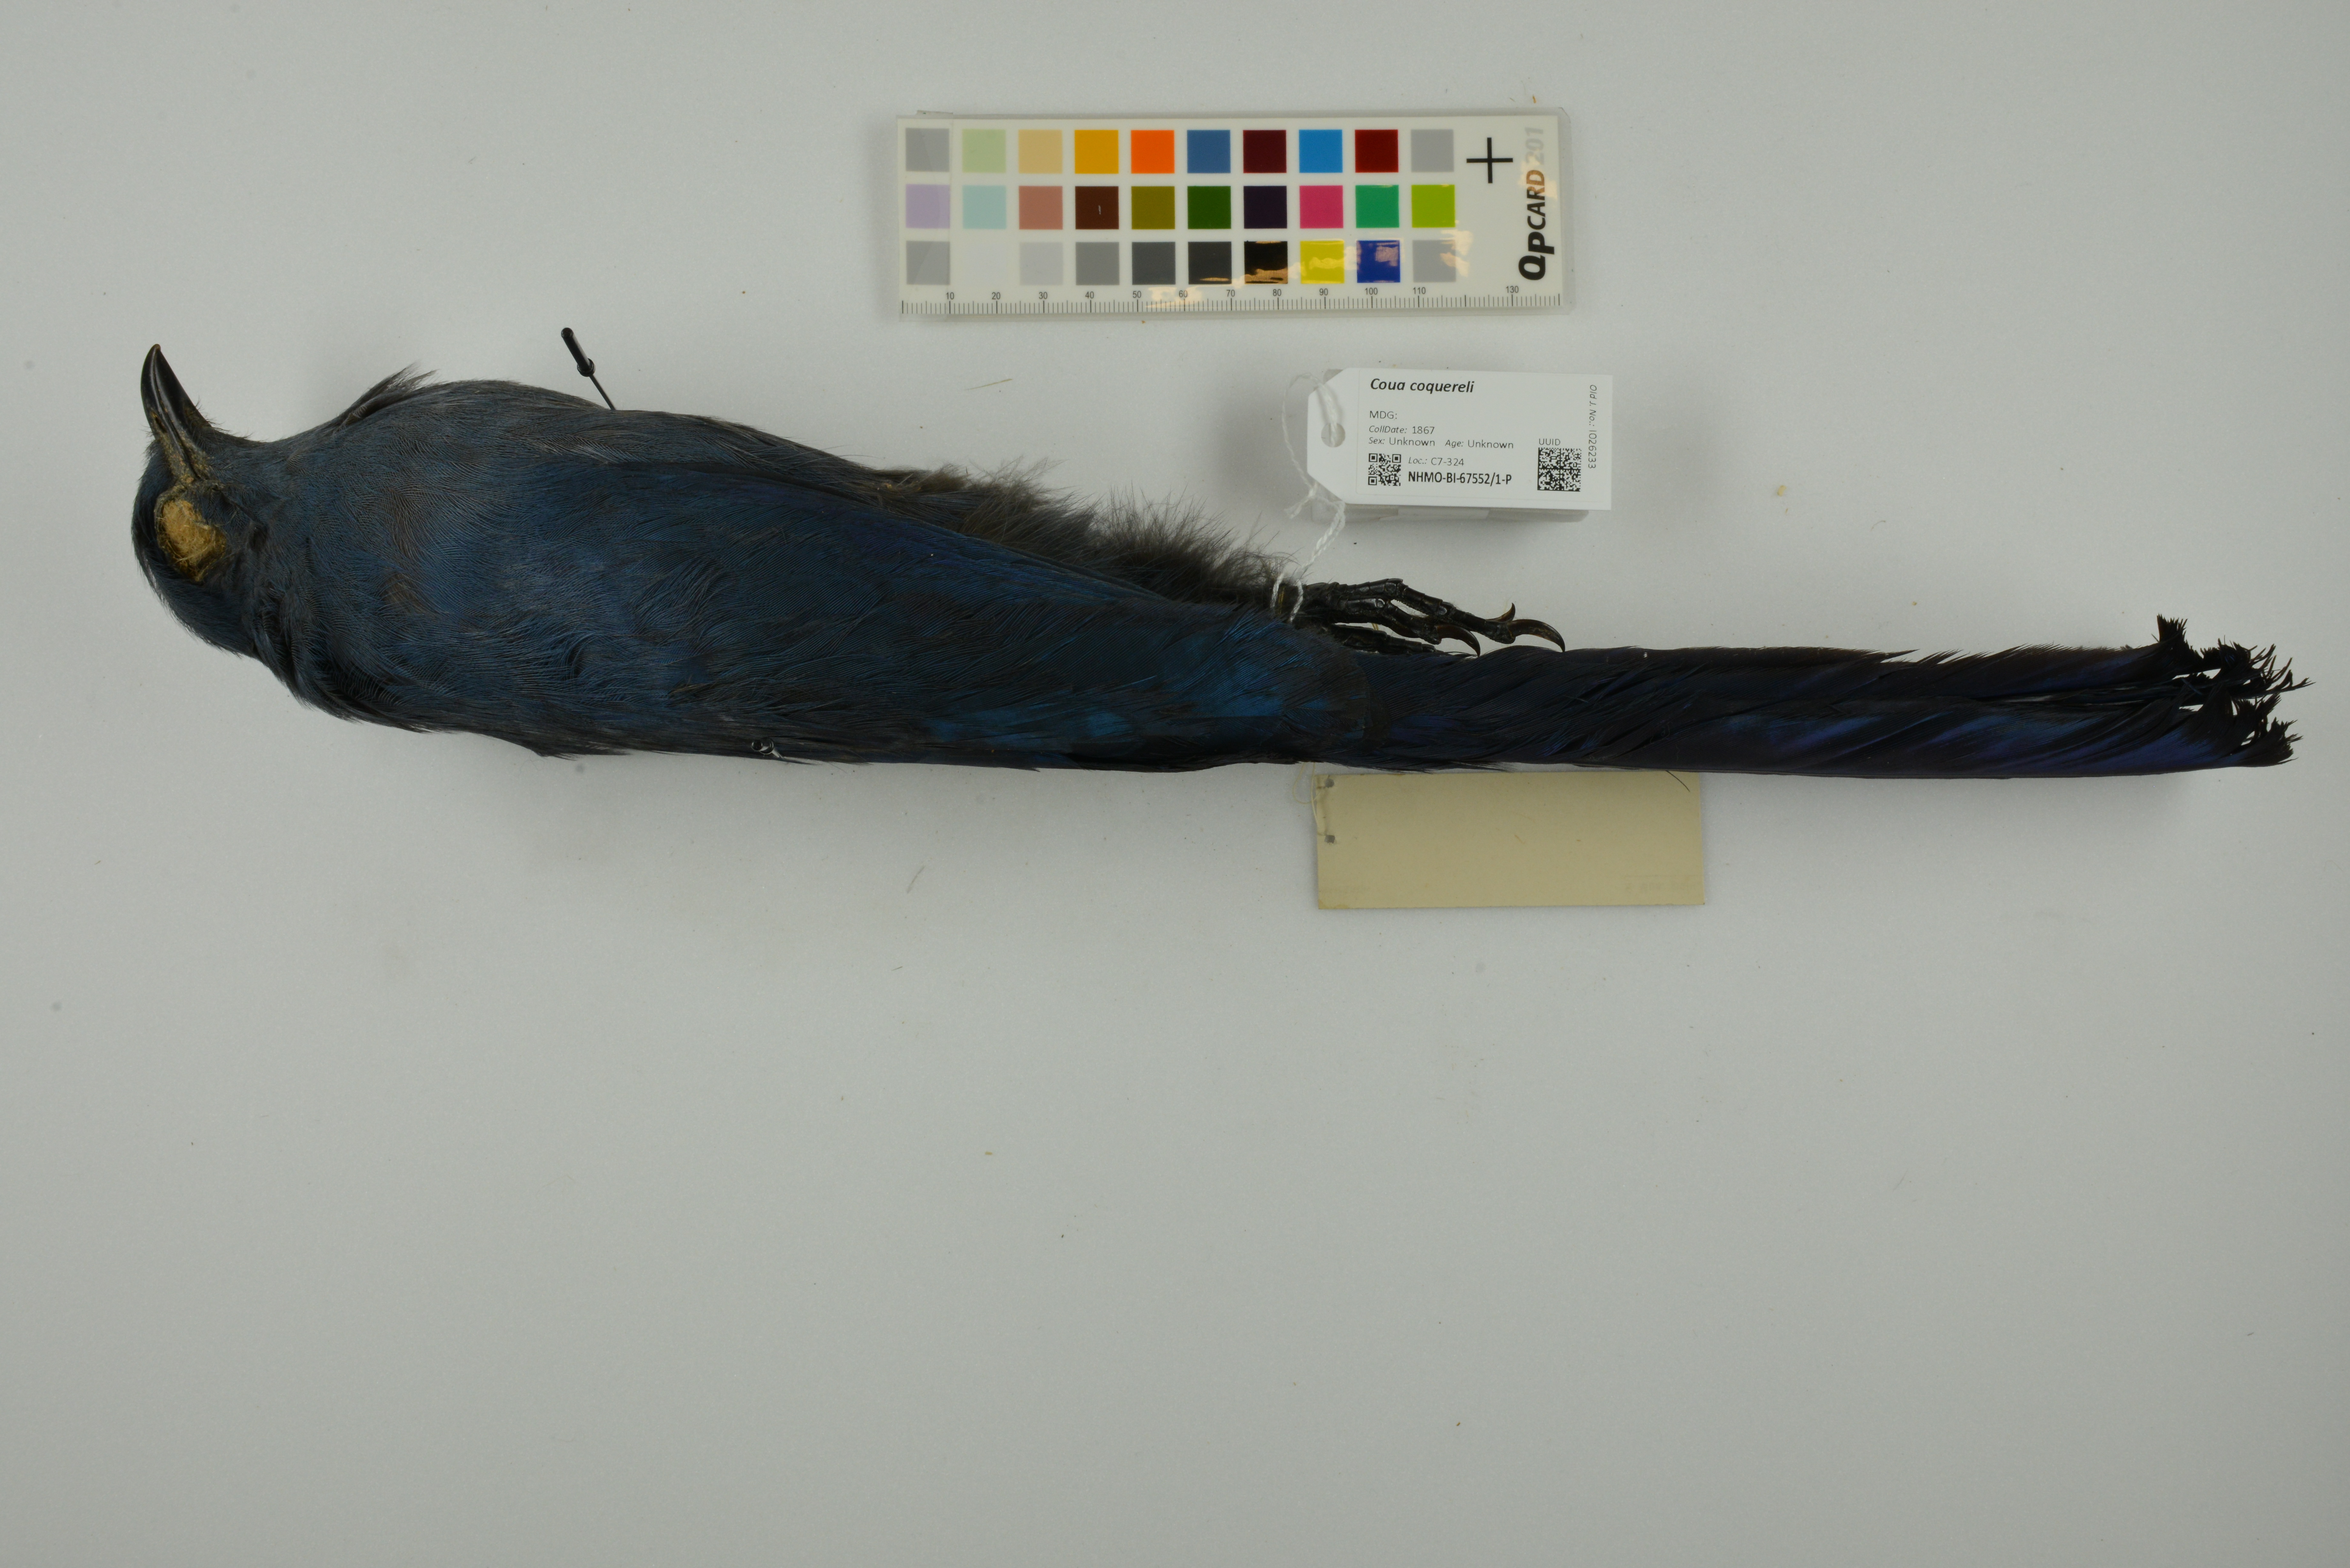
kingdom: Animalia
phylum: Chordata
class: Aves
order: Cuculiformes
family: Cuculidae
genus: Coua
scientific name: Coua coquereli
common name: Coquerel's coua
